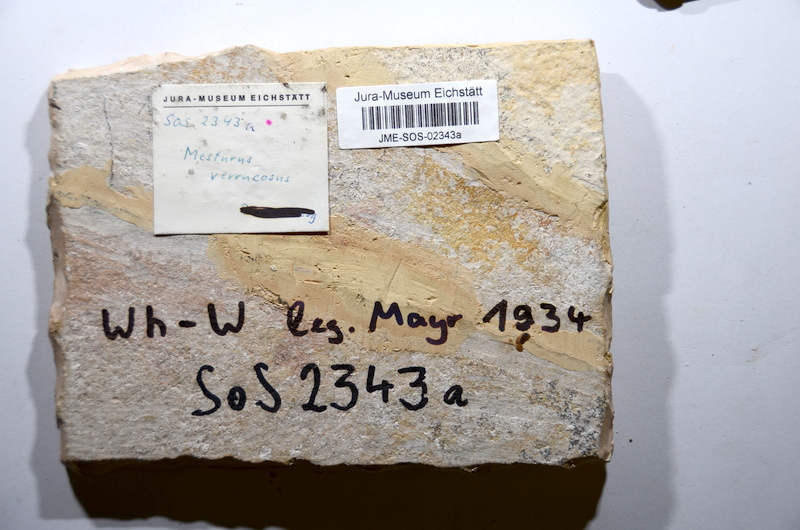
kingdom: Animalia
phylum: Chordata
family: Mesturidae
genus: Mesturus
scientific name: Mesturus verrucosus
